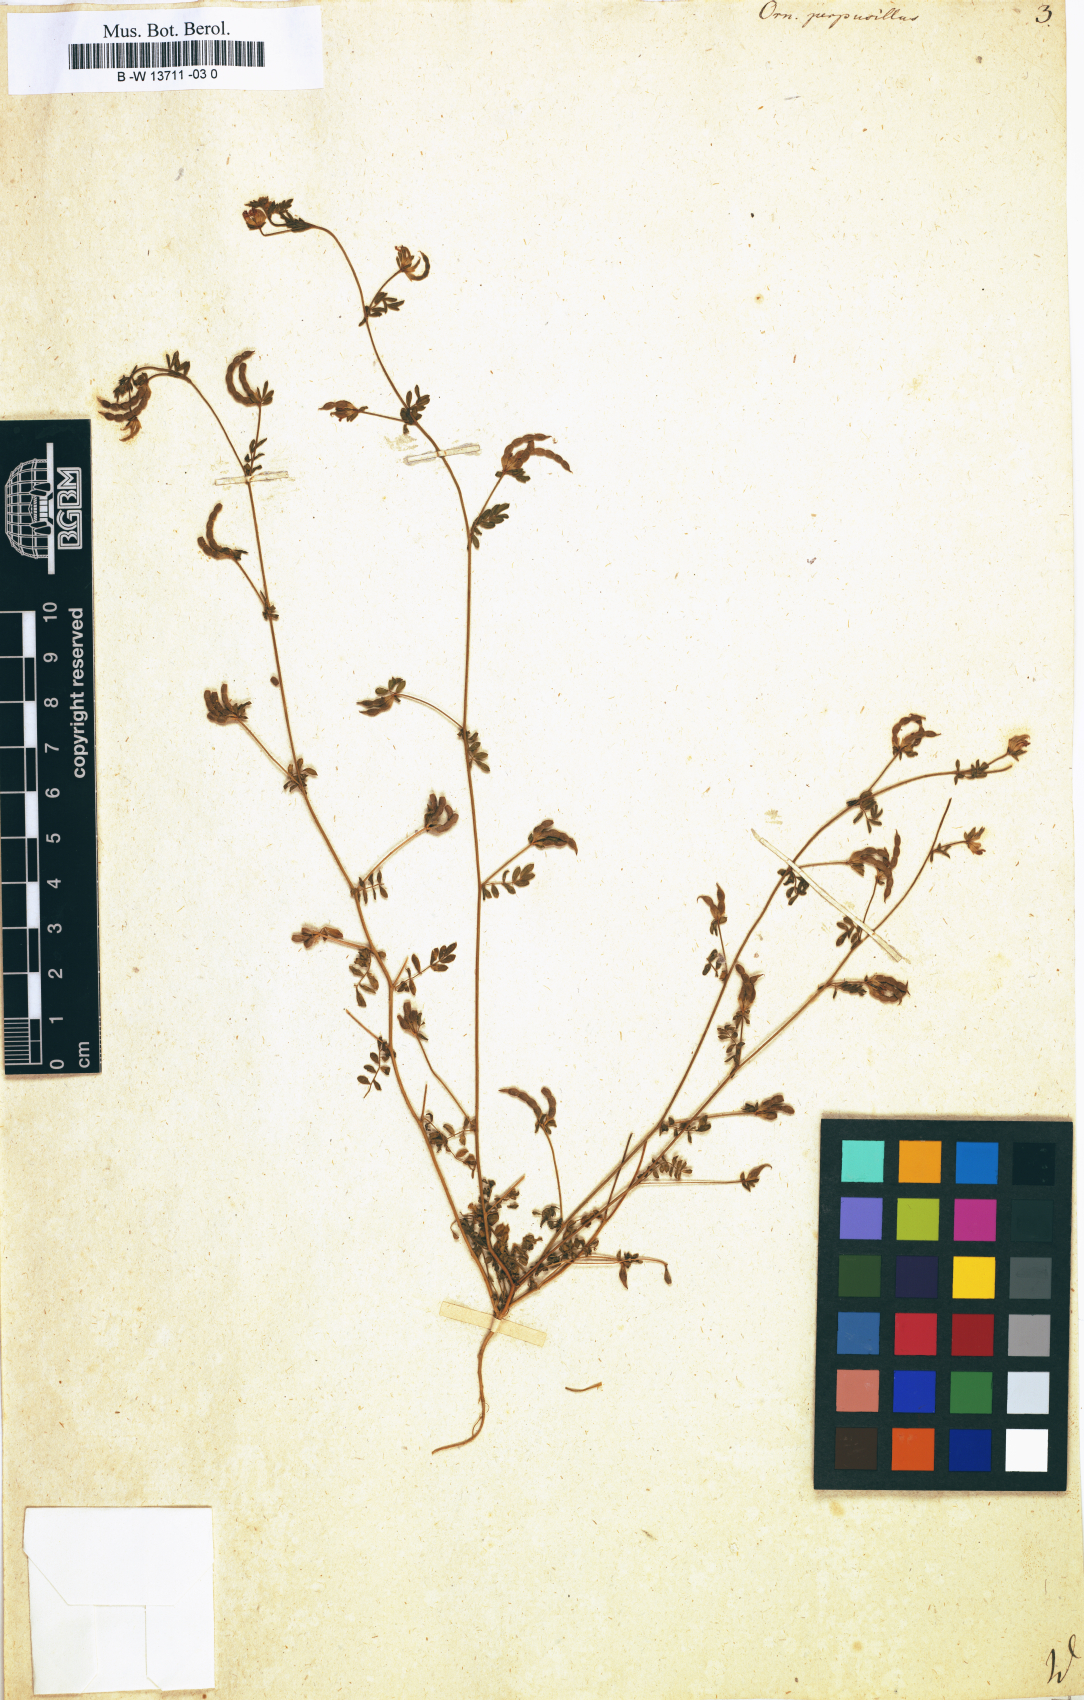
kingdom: Plantae
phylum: Tracheophyta
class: Magnoliopsida
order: Fabales
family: Fabaceae
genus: Ornithopus
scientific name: Ornithopus perpusillus
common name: Bird's-foot
